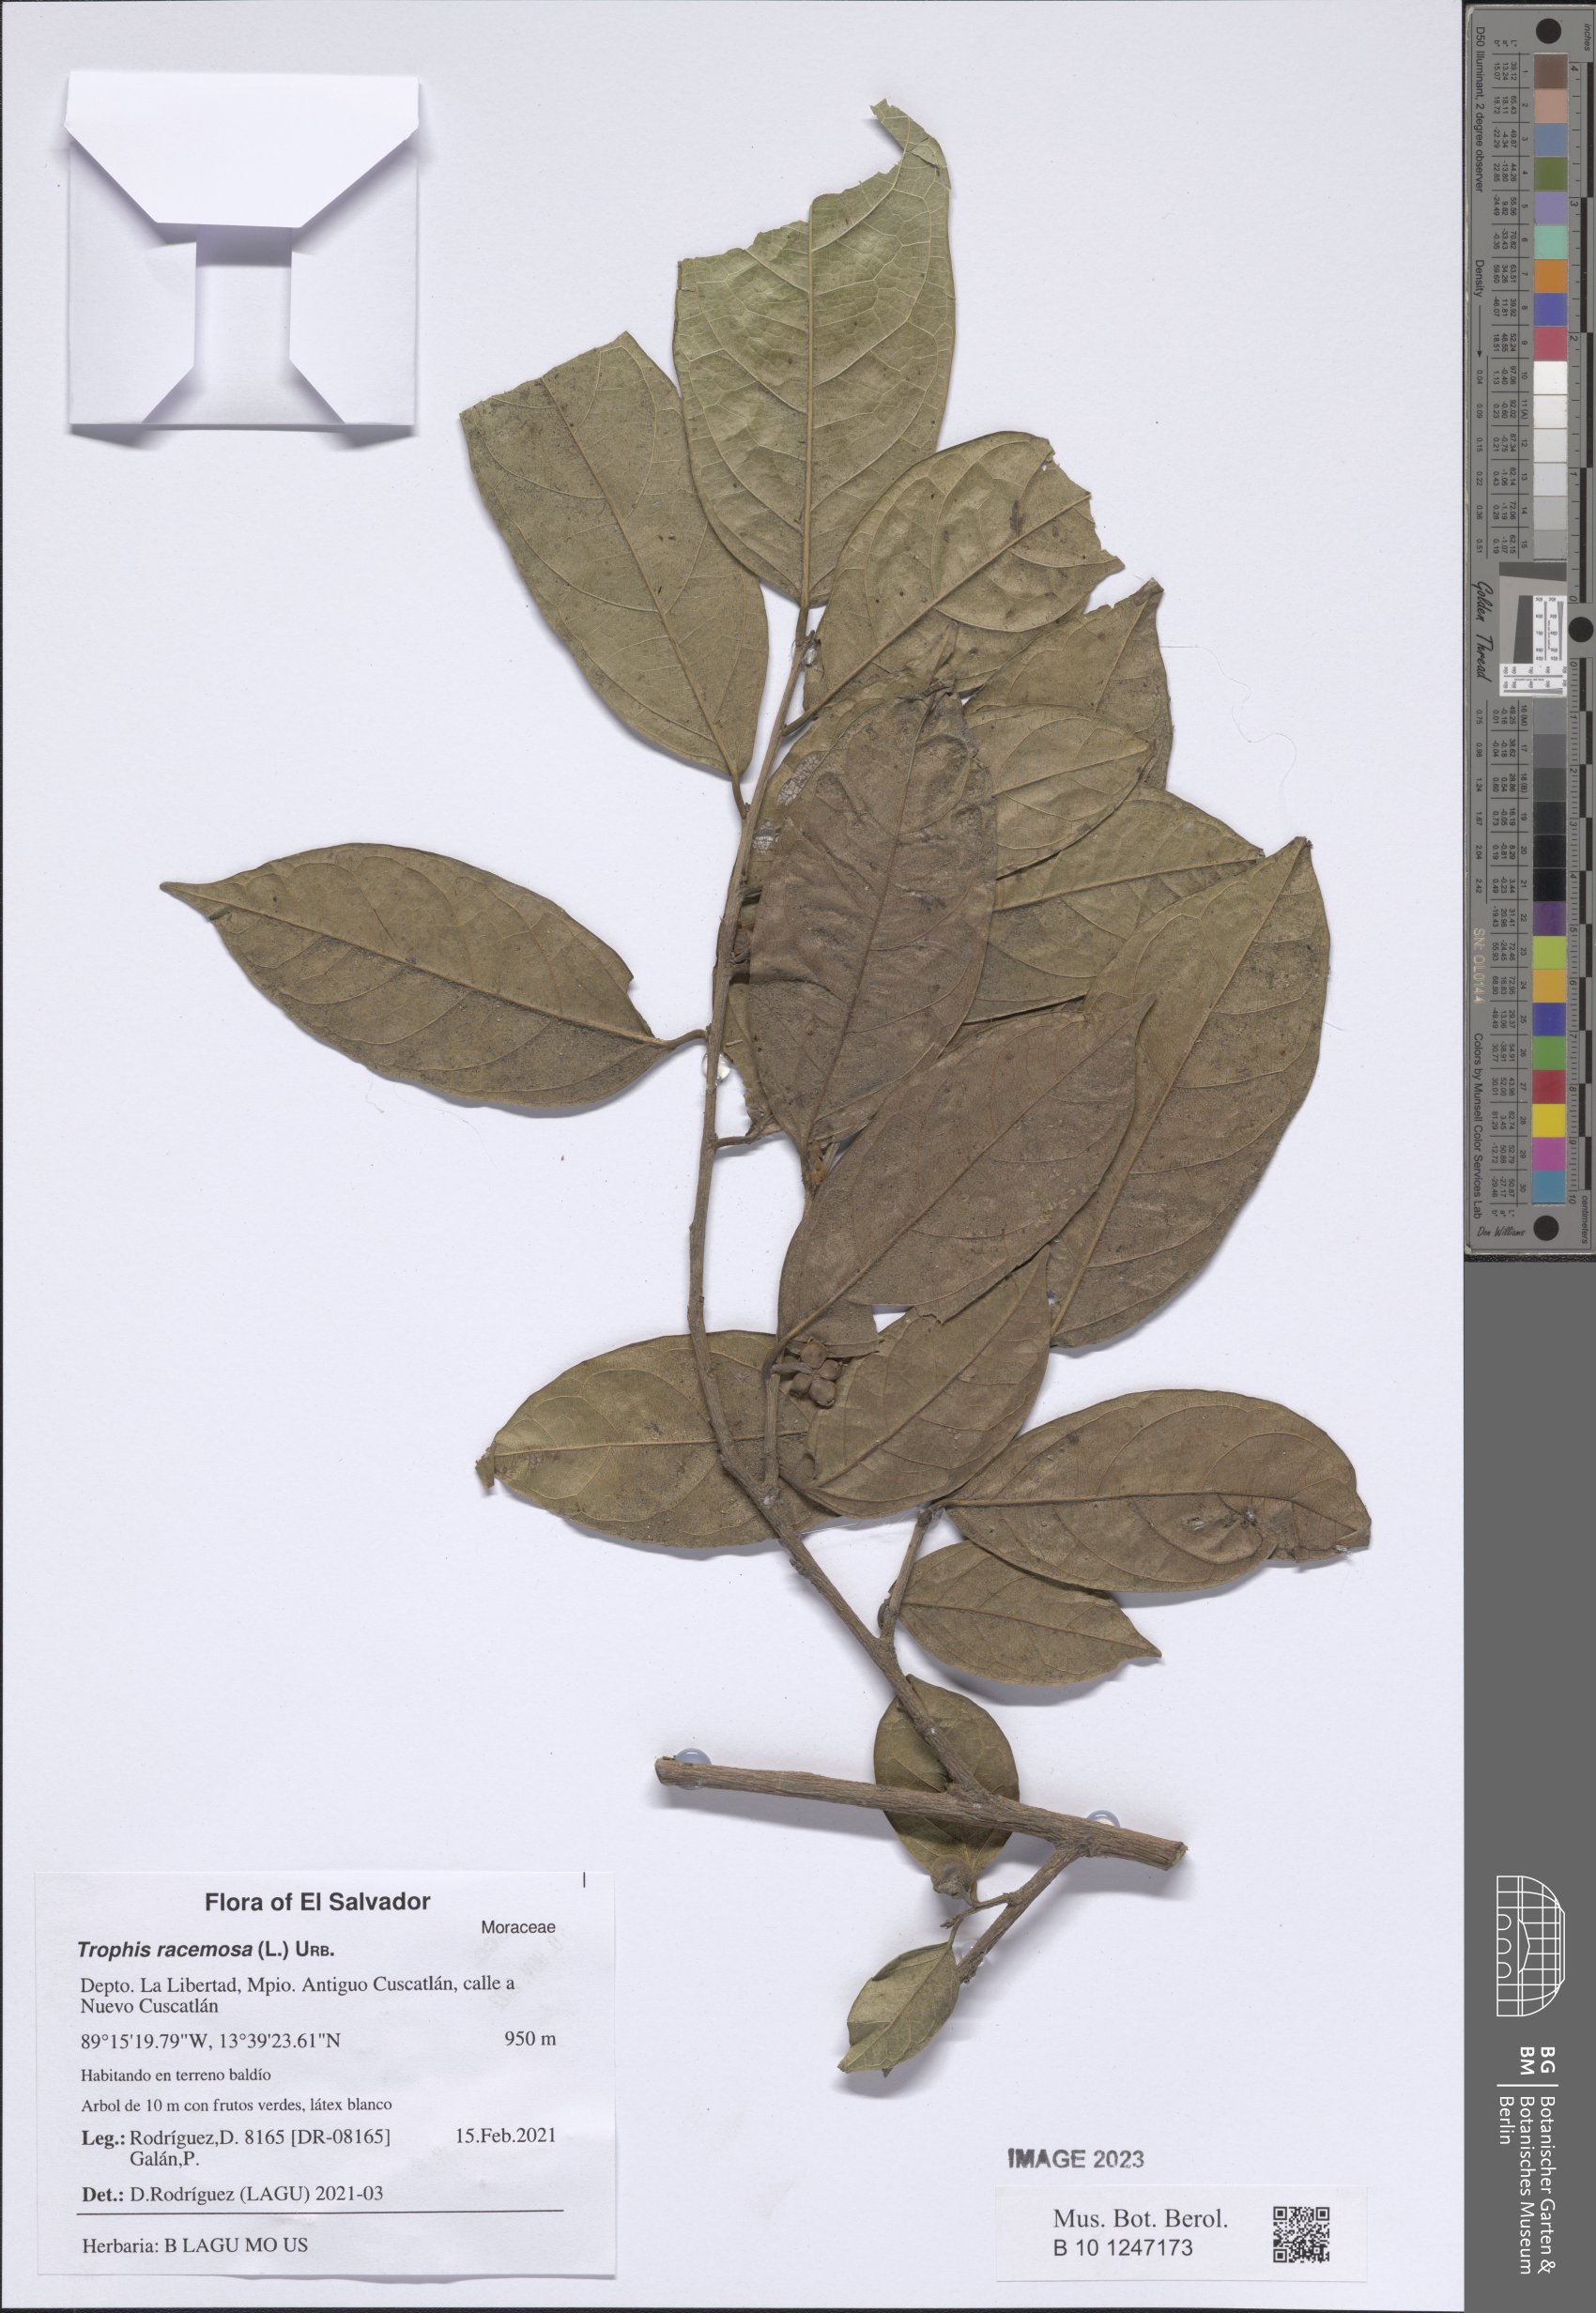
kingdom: Plantae
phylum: Tracheophyta
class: Magnoliopsida
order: Rosales
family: Moraceae
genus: Trophis
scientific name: Trophis racemosa
